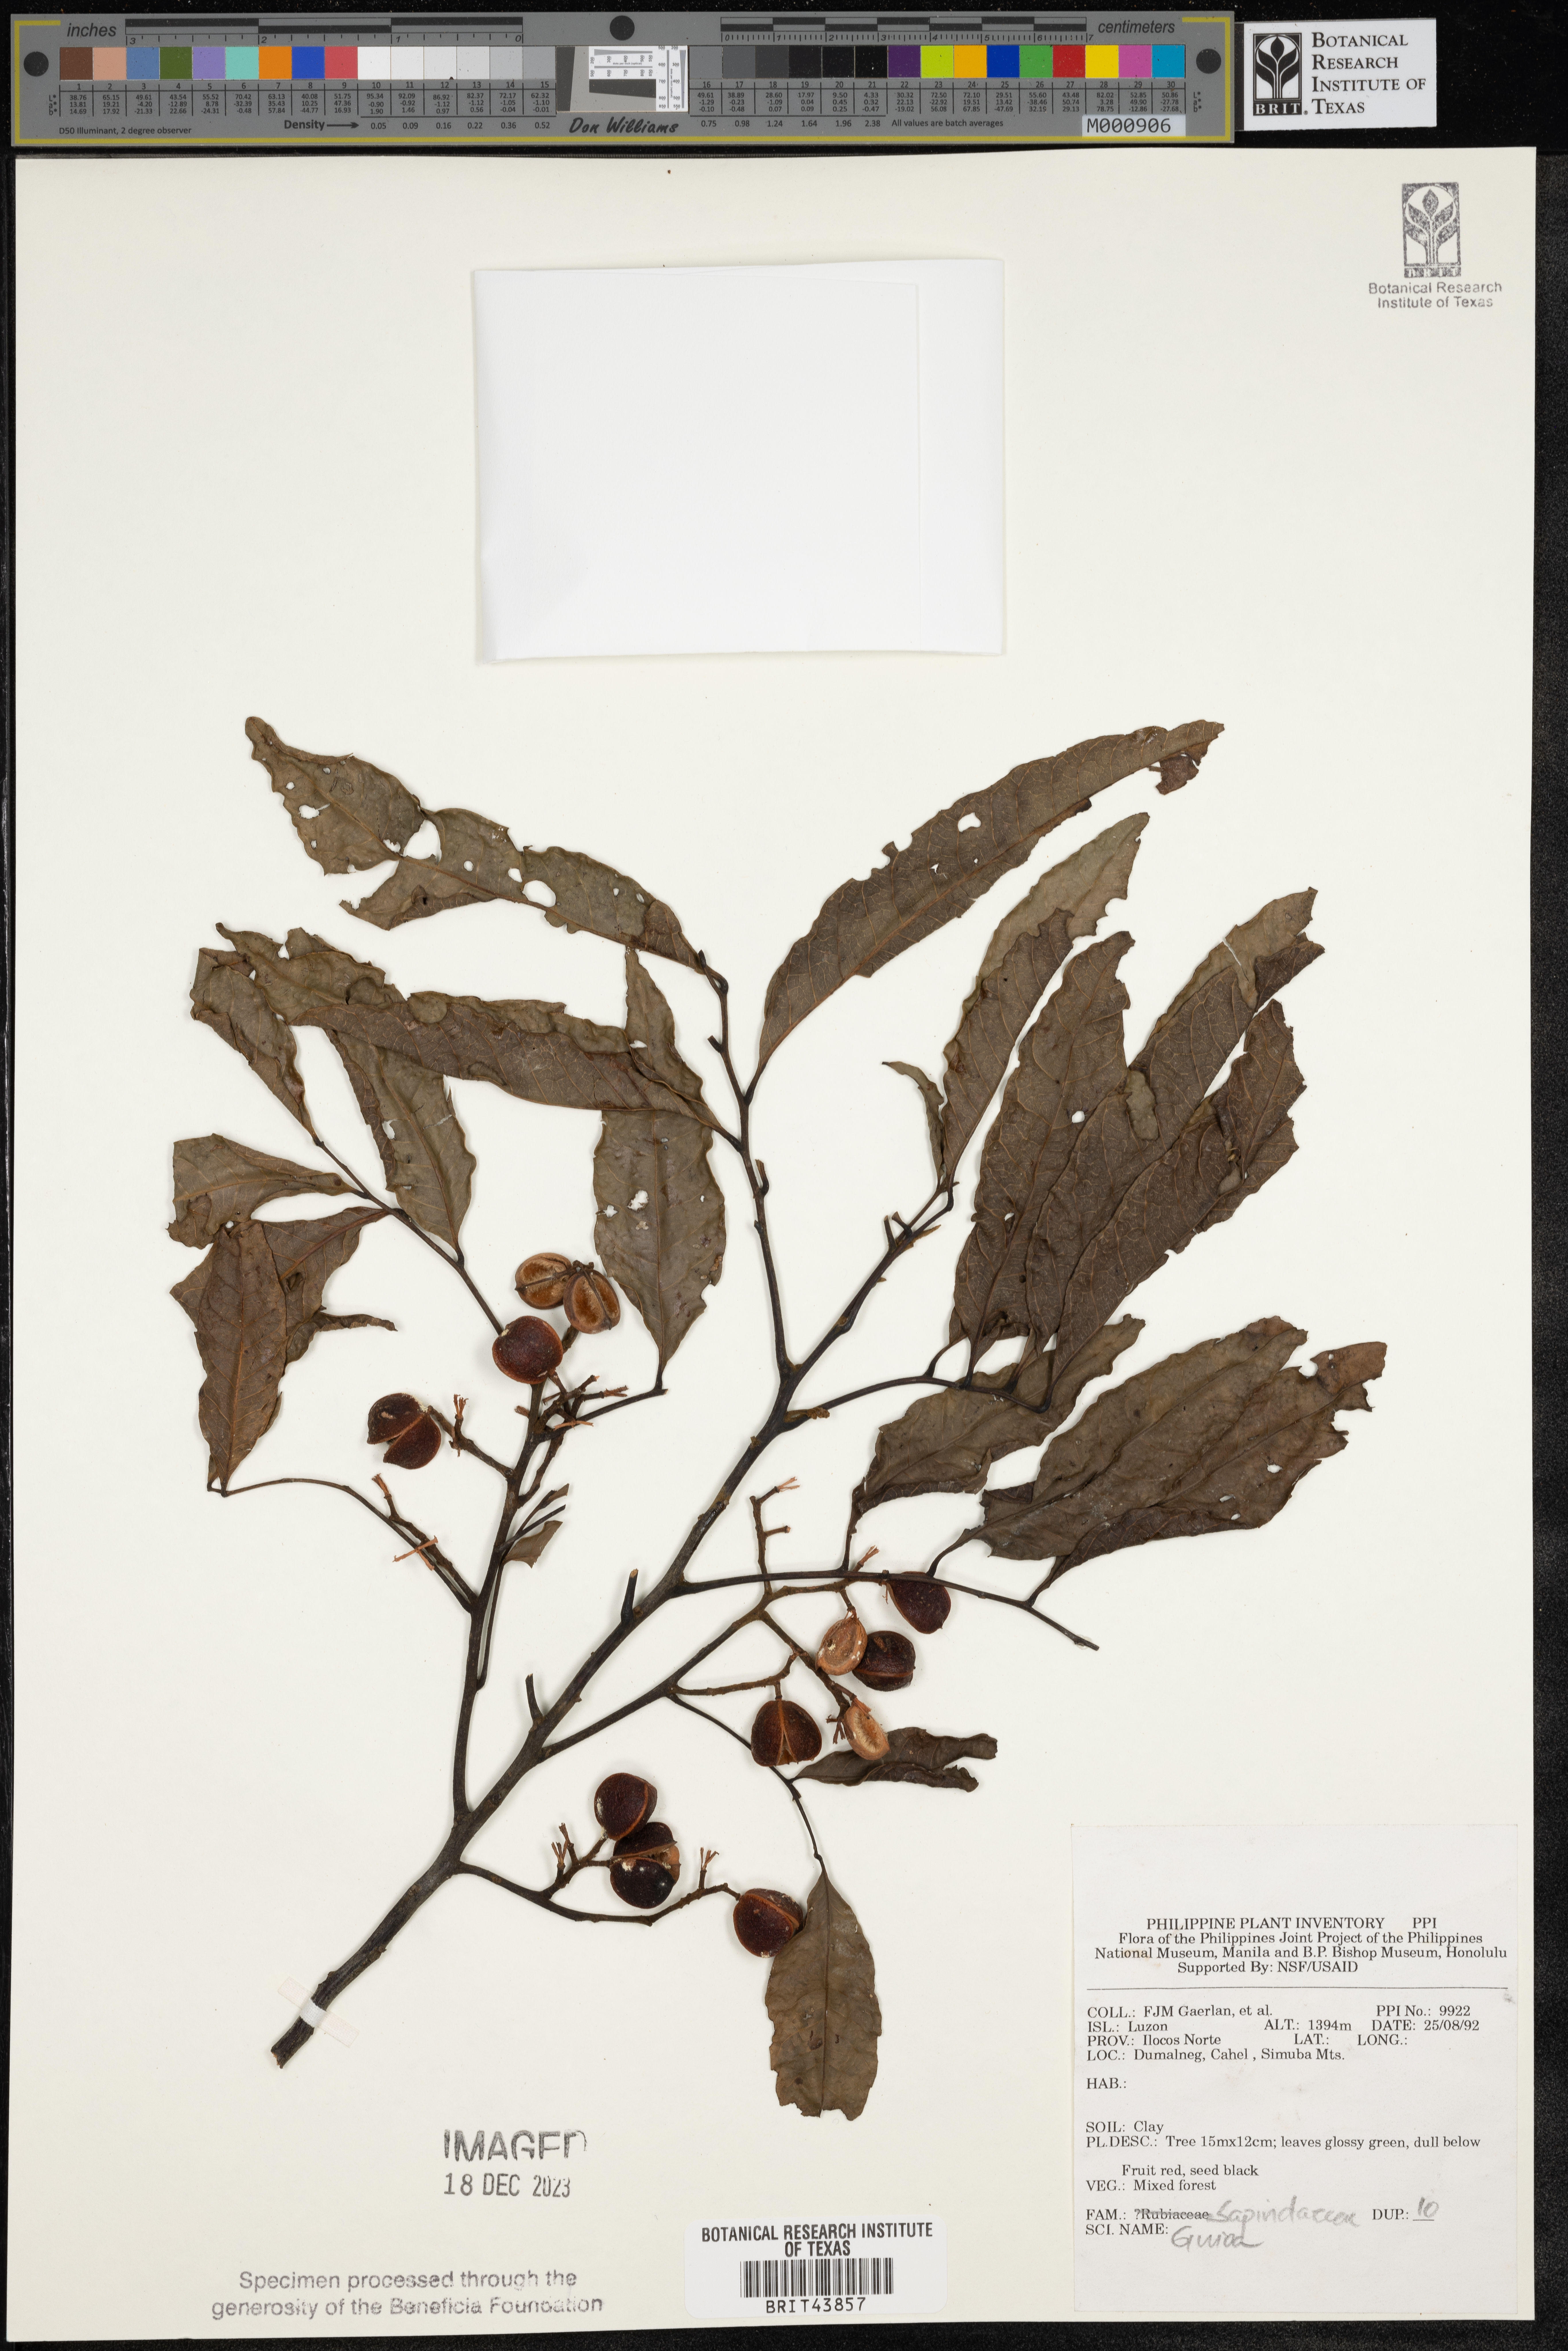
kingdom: Plantae
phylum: Tracheophyta
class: Magnoliopsida
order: Sapindales
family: Sapindaceae
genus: Guioa
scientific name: Guioa
